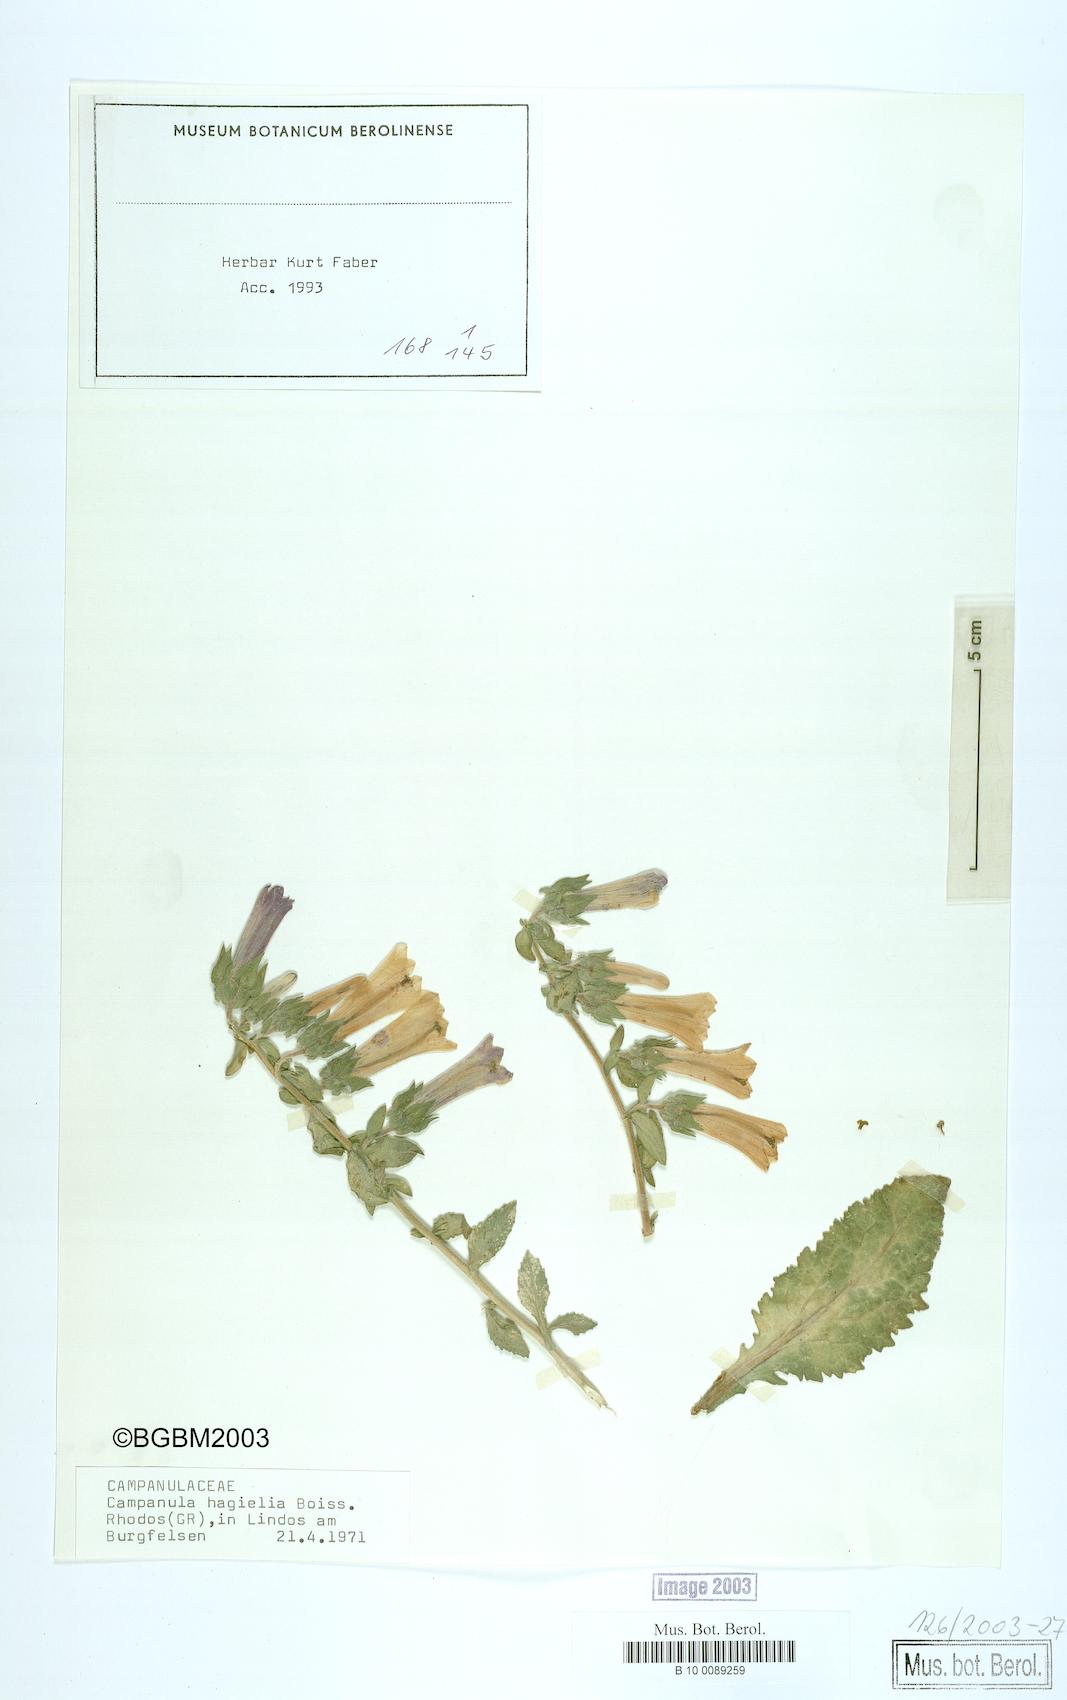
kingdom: Plantae
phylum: Tracheophyta
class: Magnoliopsida
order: Asterales
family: Campanulaceae
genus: Campanula
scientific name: Campanula hagielia
